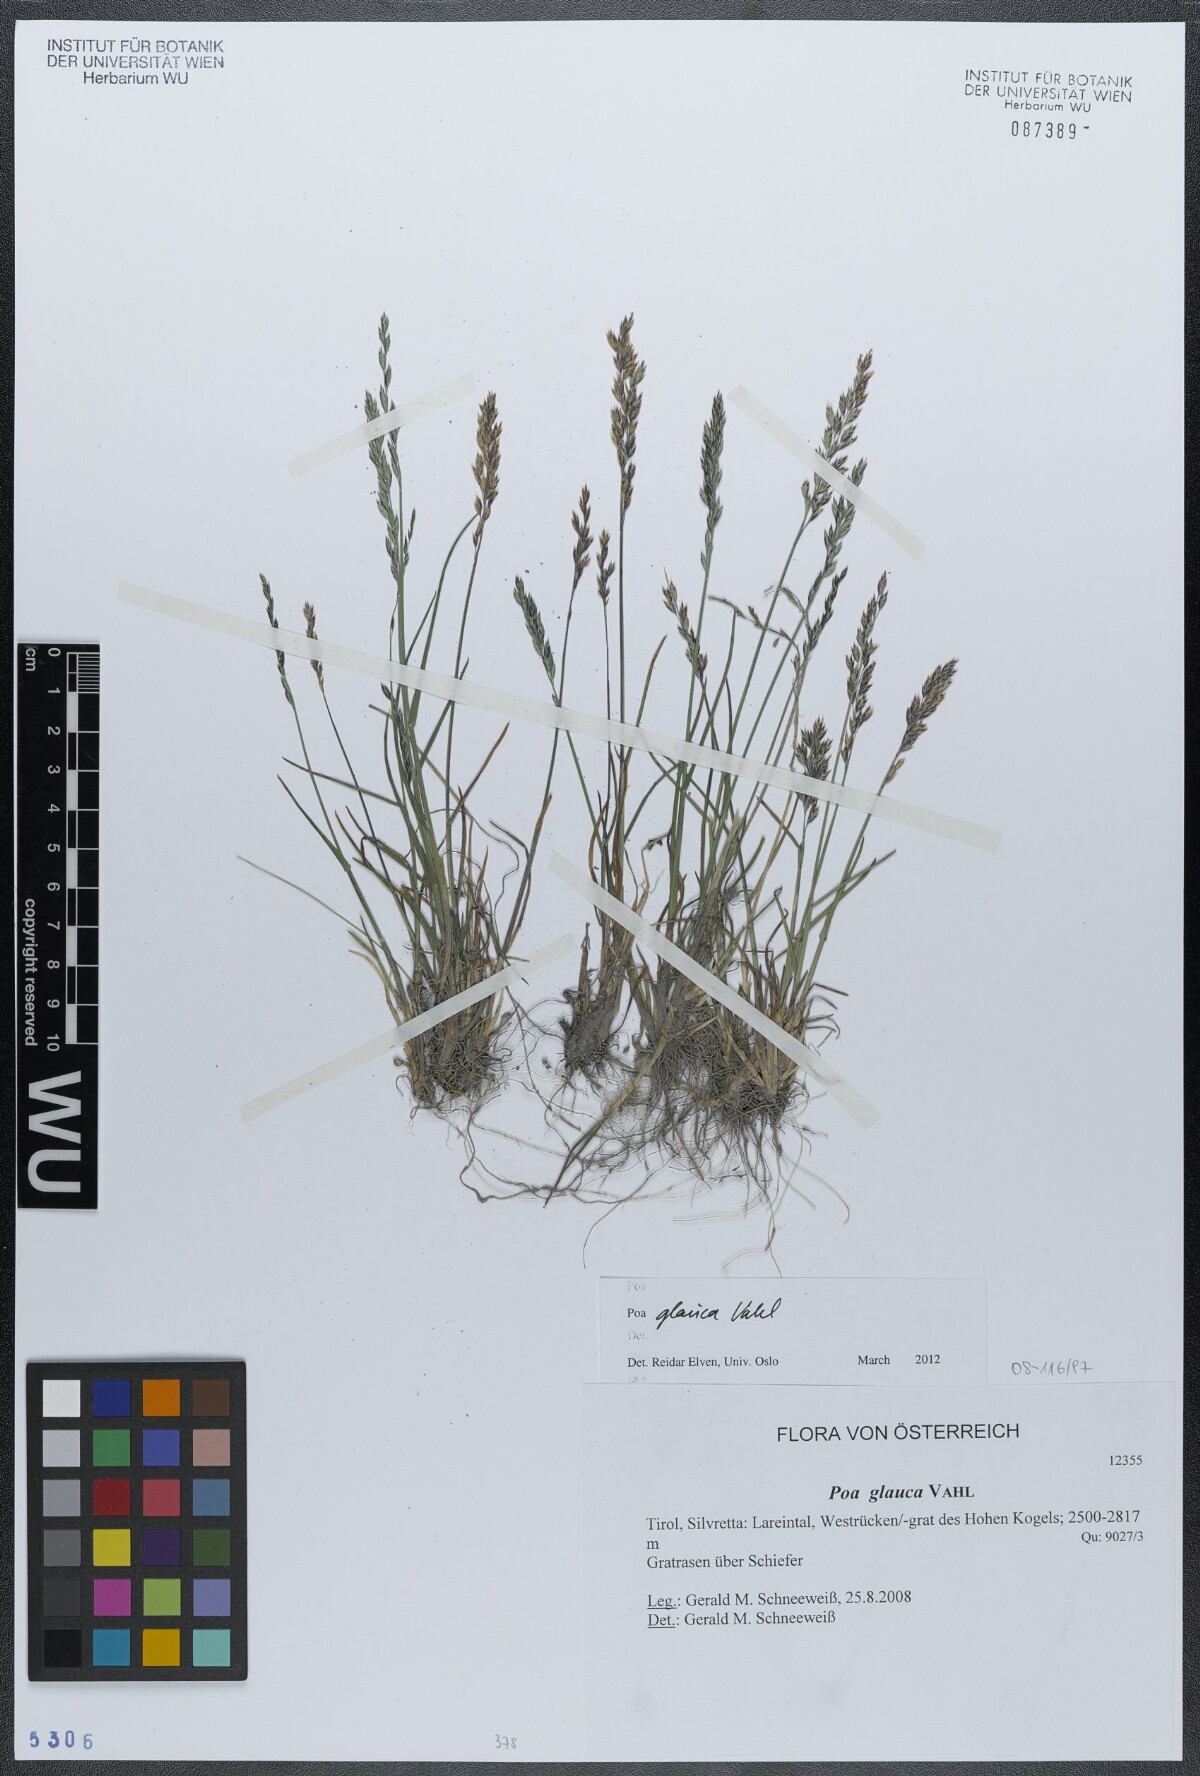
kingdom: Plantae
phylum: Tracheophyta
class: Liliopsida
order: Poales
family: Poaceae
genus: Poa
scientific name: Poa glauca
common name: Glaucous bluegrass
